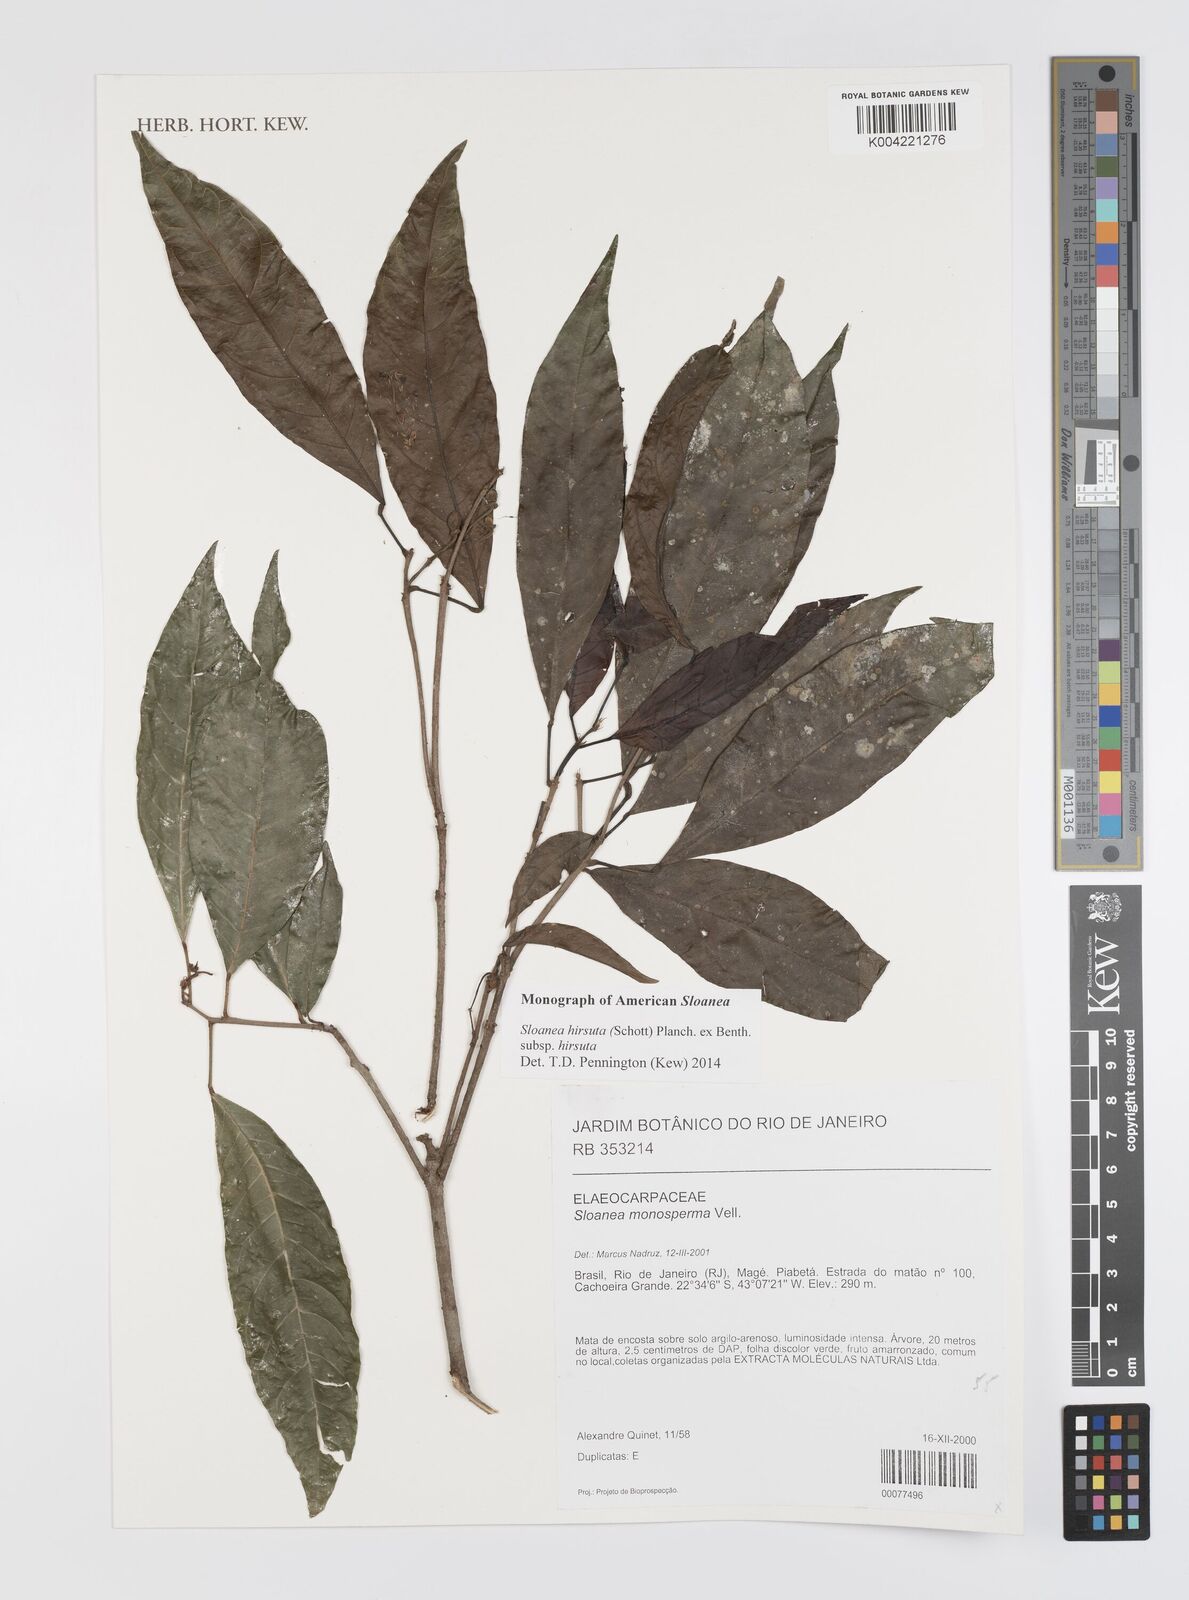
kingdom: Plantae
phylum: Tracheophyta
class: Magnoliopsida
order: Oxalidales
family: Elaeocarpaceae
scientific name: Elaeocarpaceae
